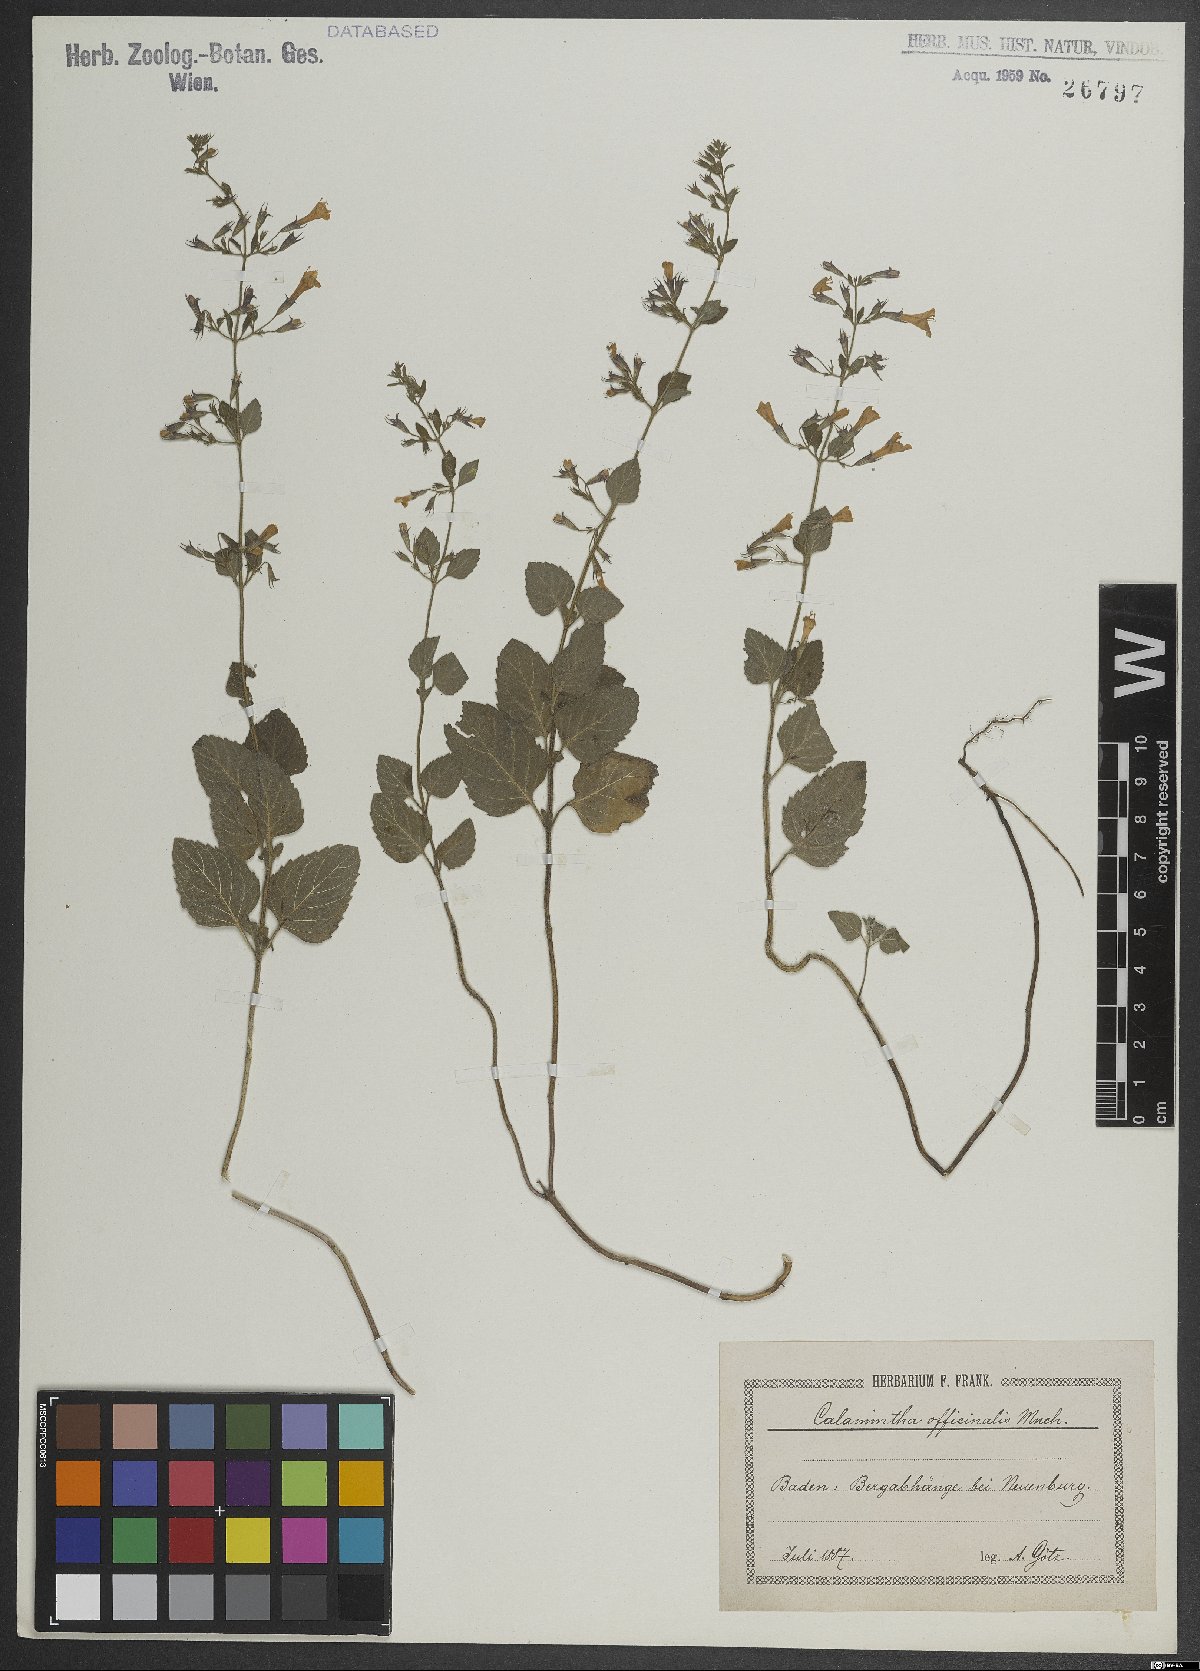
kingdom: Plantae
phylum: Tracheophyta
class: Magnoliopsida
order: Lamiales
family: Lamiaceae
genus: Clinopodium
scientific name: Clinopodium nepeta
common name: Lesser calamint
